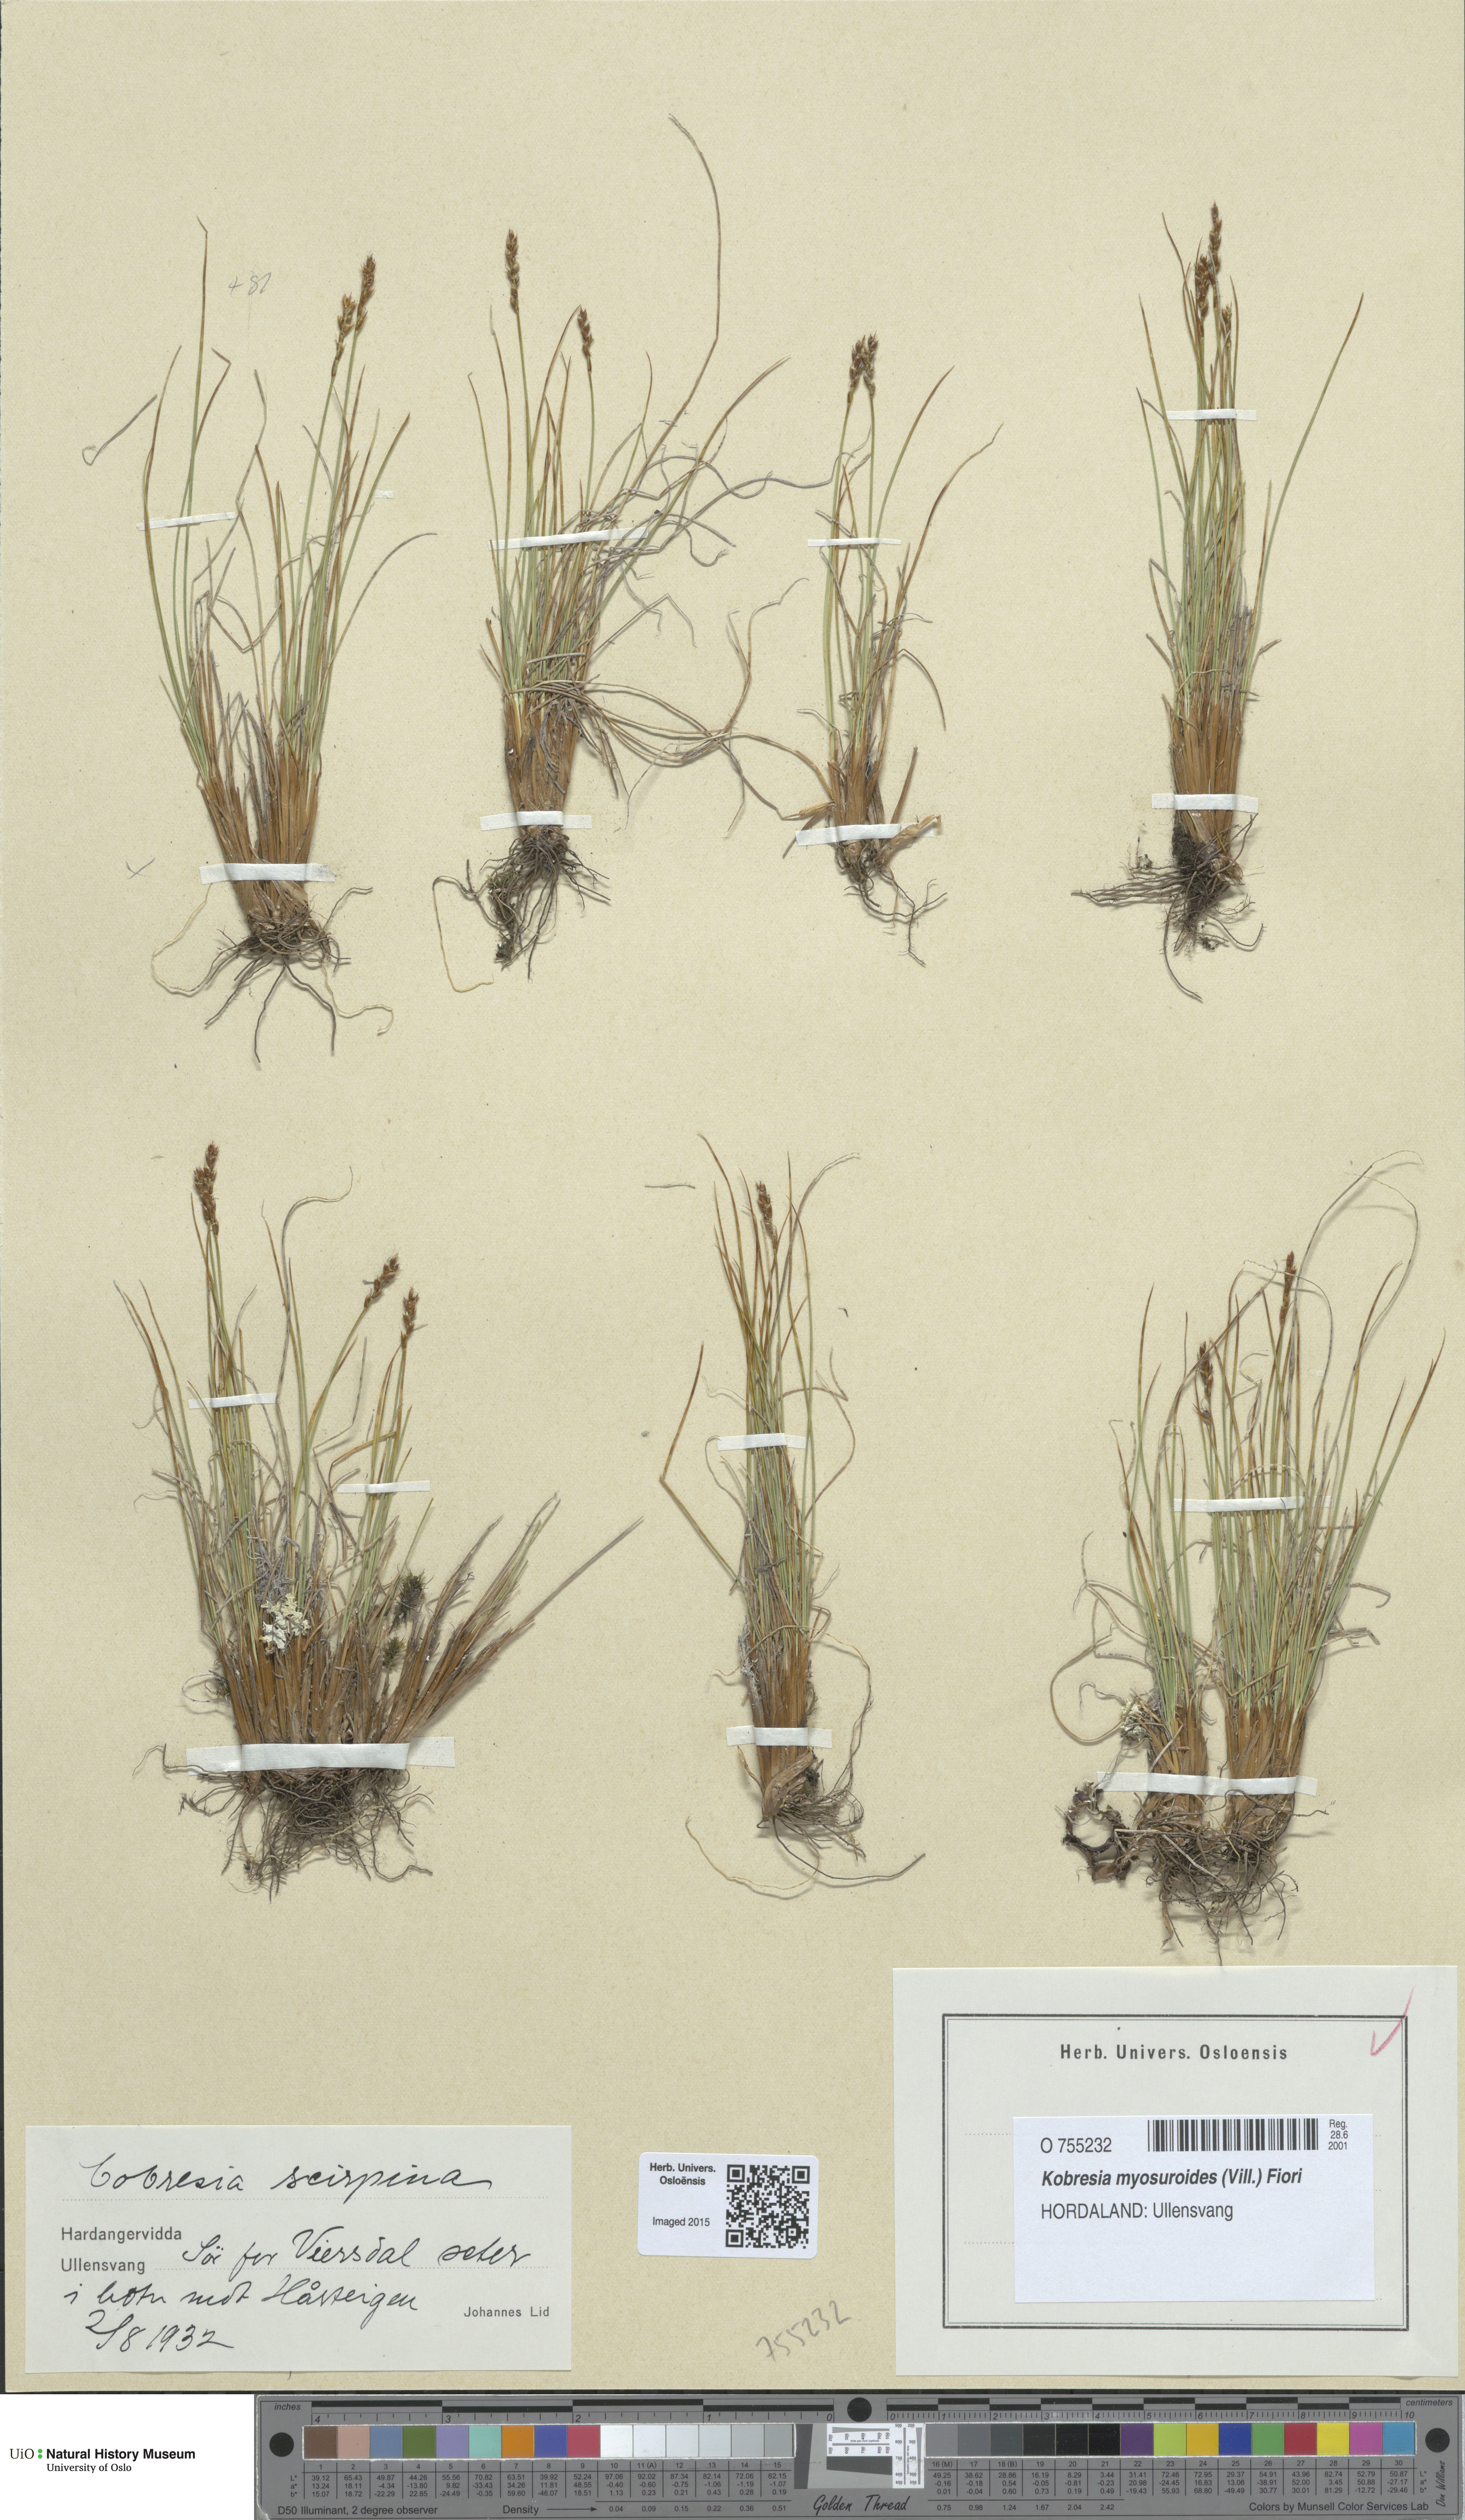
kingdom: Plantae
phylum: Tracheophyta
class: Liliopsida
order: Poales
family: Cyperaceae
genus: Carex
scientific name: Carex myosuroides
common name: Bellard's bog sedge
